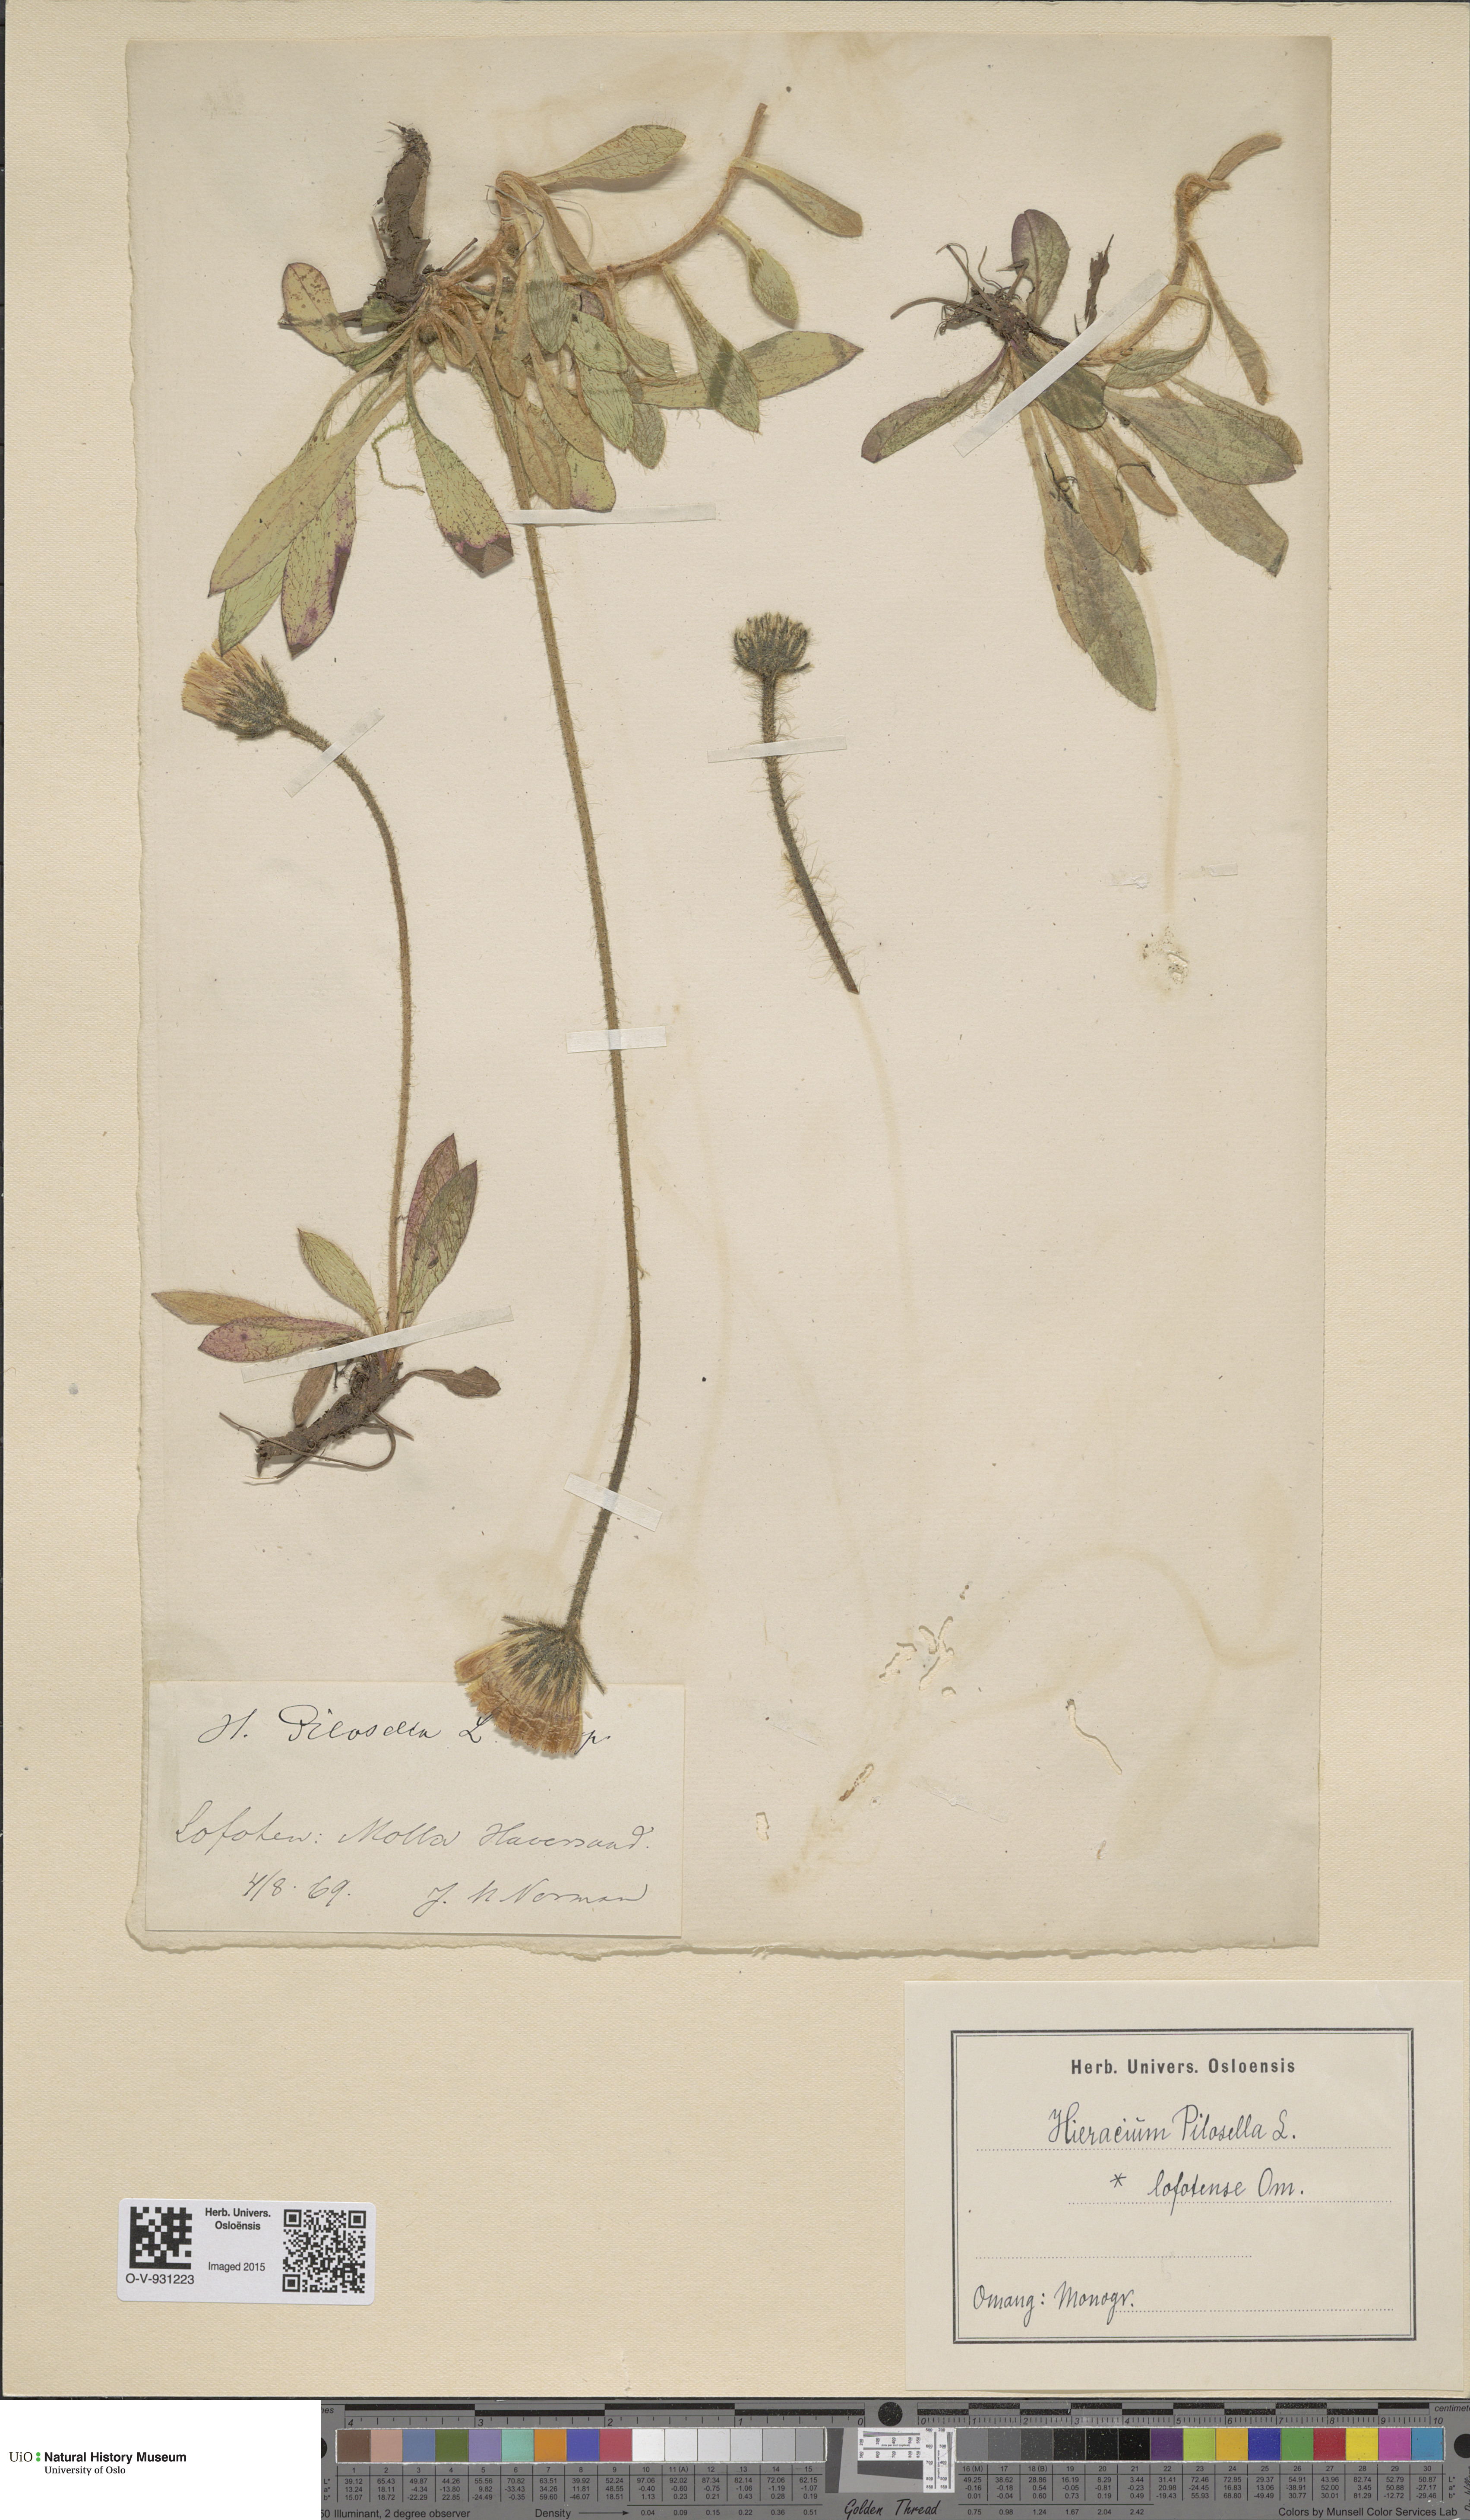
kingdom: Plantae
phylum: Tracheophyta
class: Magnoliopsida
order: Asterales
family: Asteraceae
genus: Pilosella
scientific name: Pilosella officinarum
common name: Mouse-ear hawkweed
